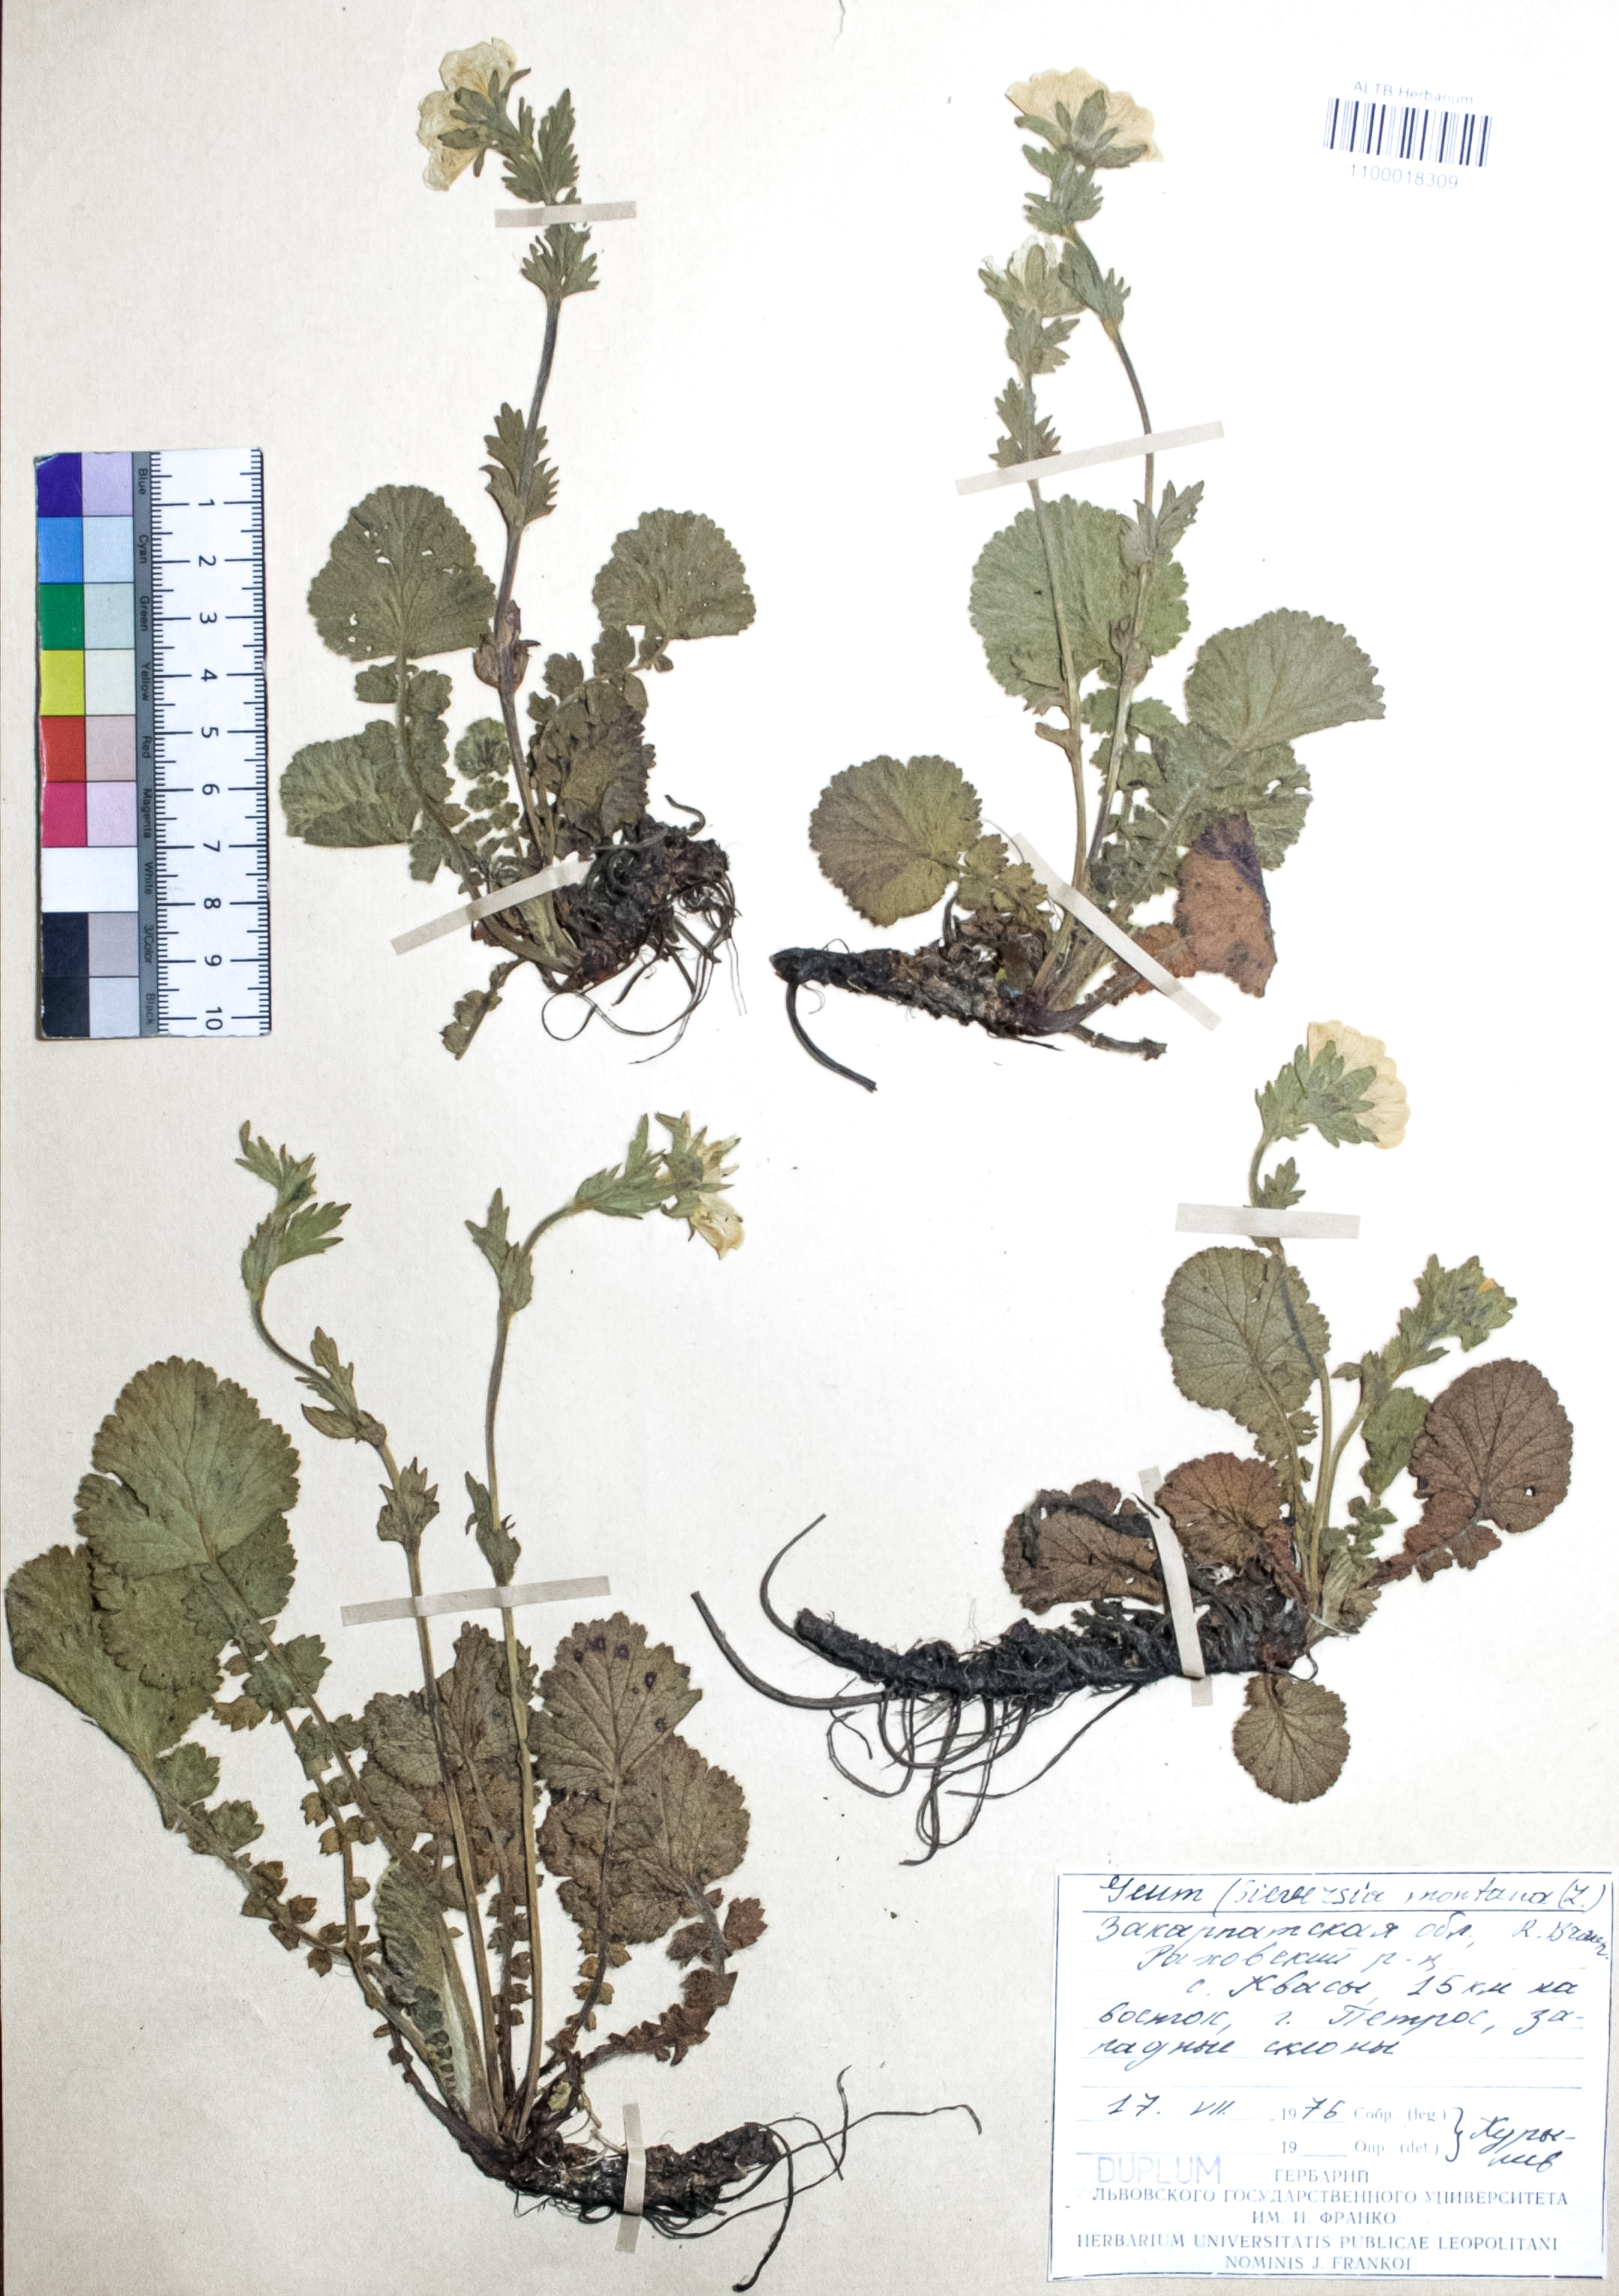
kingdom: Plantae
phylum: Tracheophyta
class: Magnoliopsida
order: Rosales
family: Rosaceae
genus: Geum
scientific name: Geum montanum
